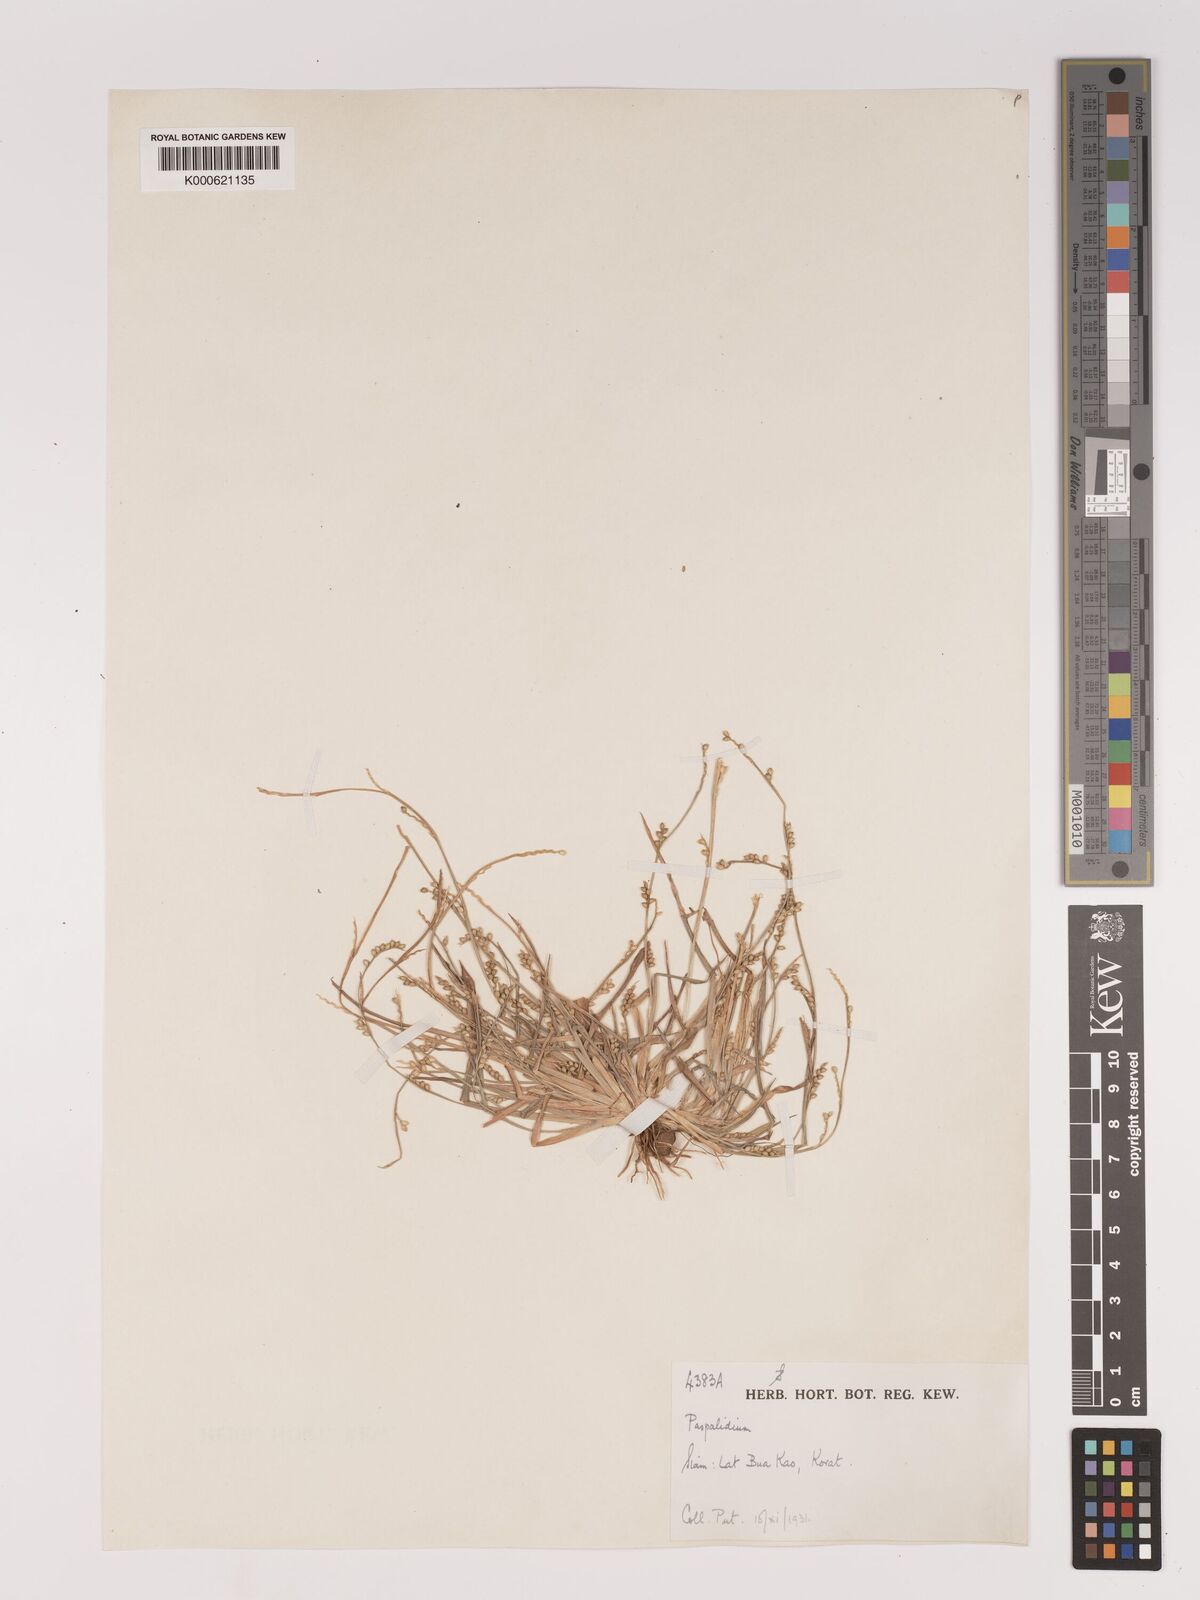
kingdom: Plantae
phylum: Tracheophyta
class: Liliopsida
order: Poales
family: Poaceae
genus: Setaria
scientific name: Setaria flavida
